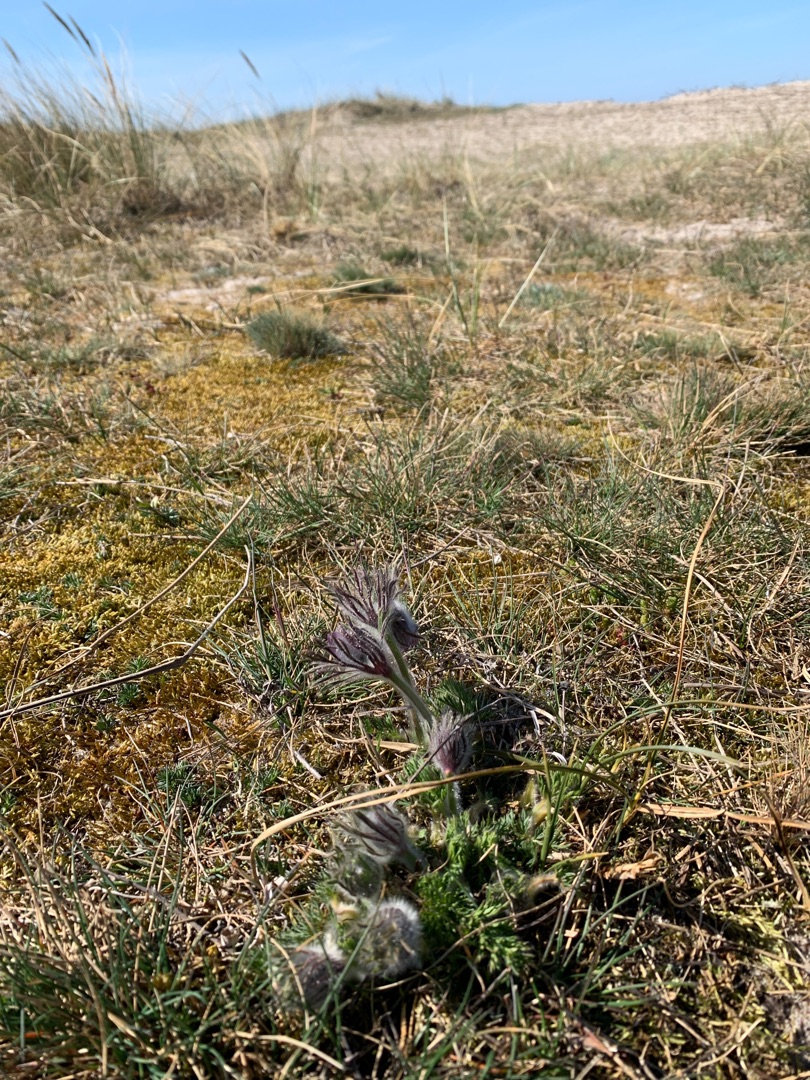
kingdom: Plantae
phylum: Tracheophyta
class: Magnoliopsida
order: Ranunculales
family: Ranunculaceae
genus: Pulsatilla
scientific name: Pulsatilla pratensis
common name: Nikkende kobjælde
